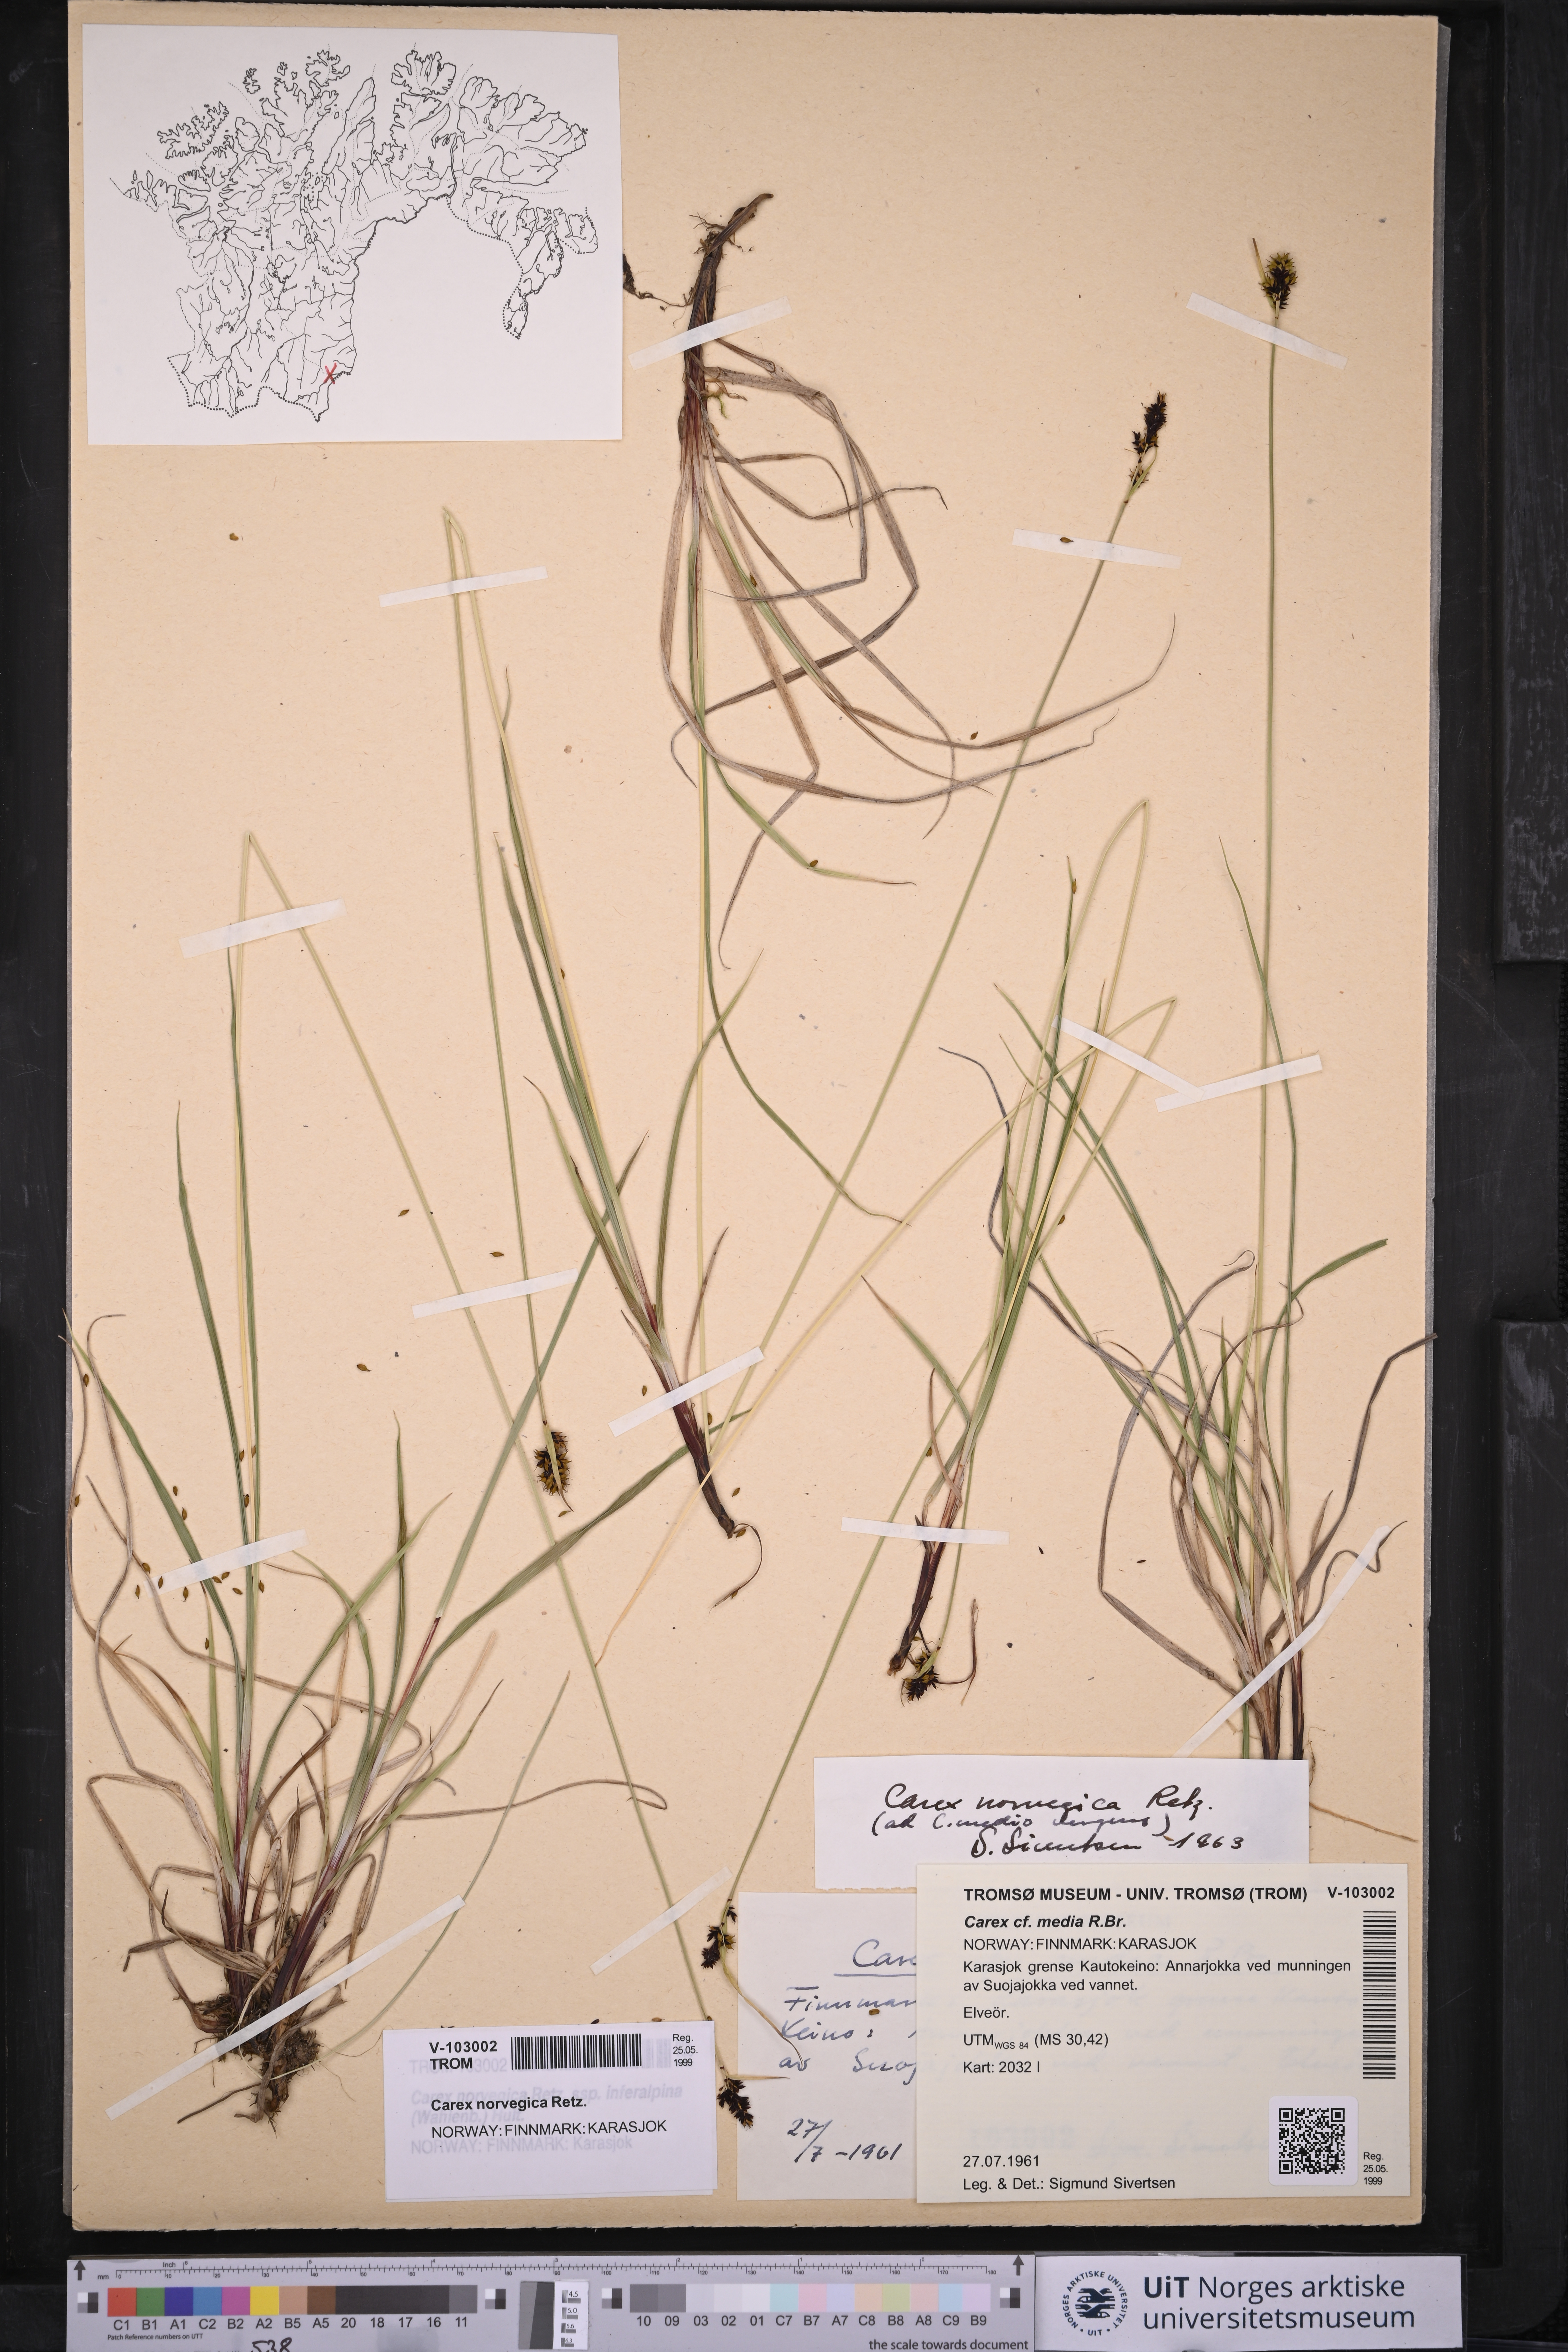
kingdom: Plantae
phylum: Tracheophyta
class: Liliopsida
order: Poales
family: Cyperaceae
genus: Carex
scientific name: Carex norvegica
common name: Close-headed alpine-sedge
